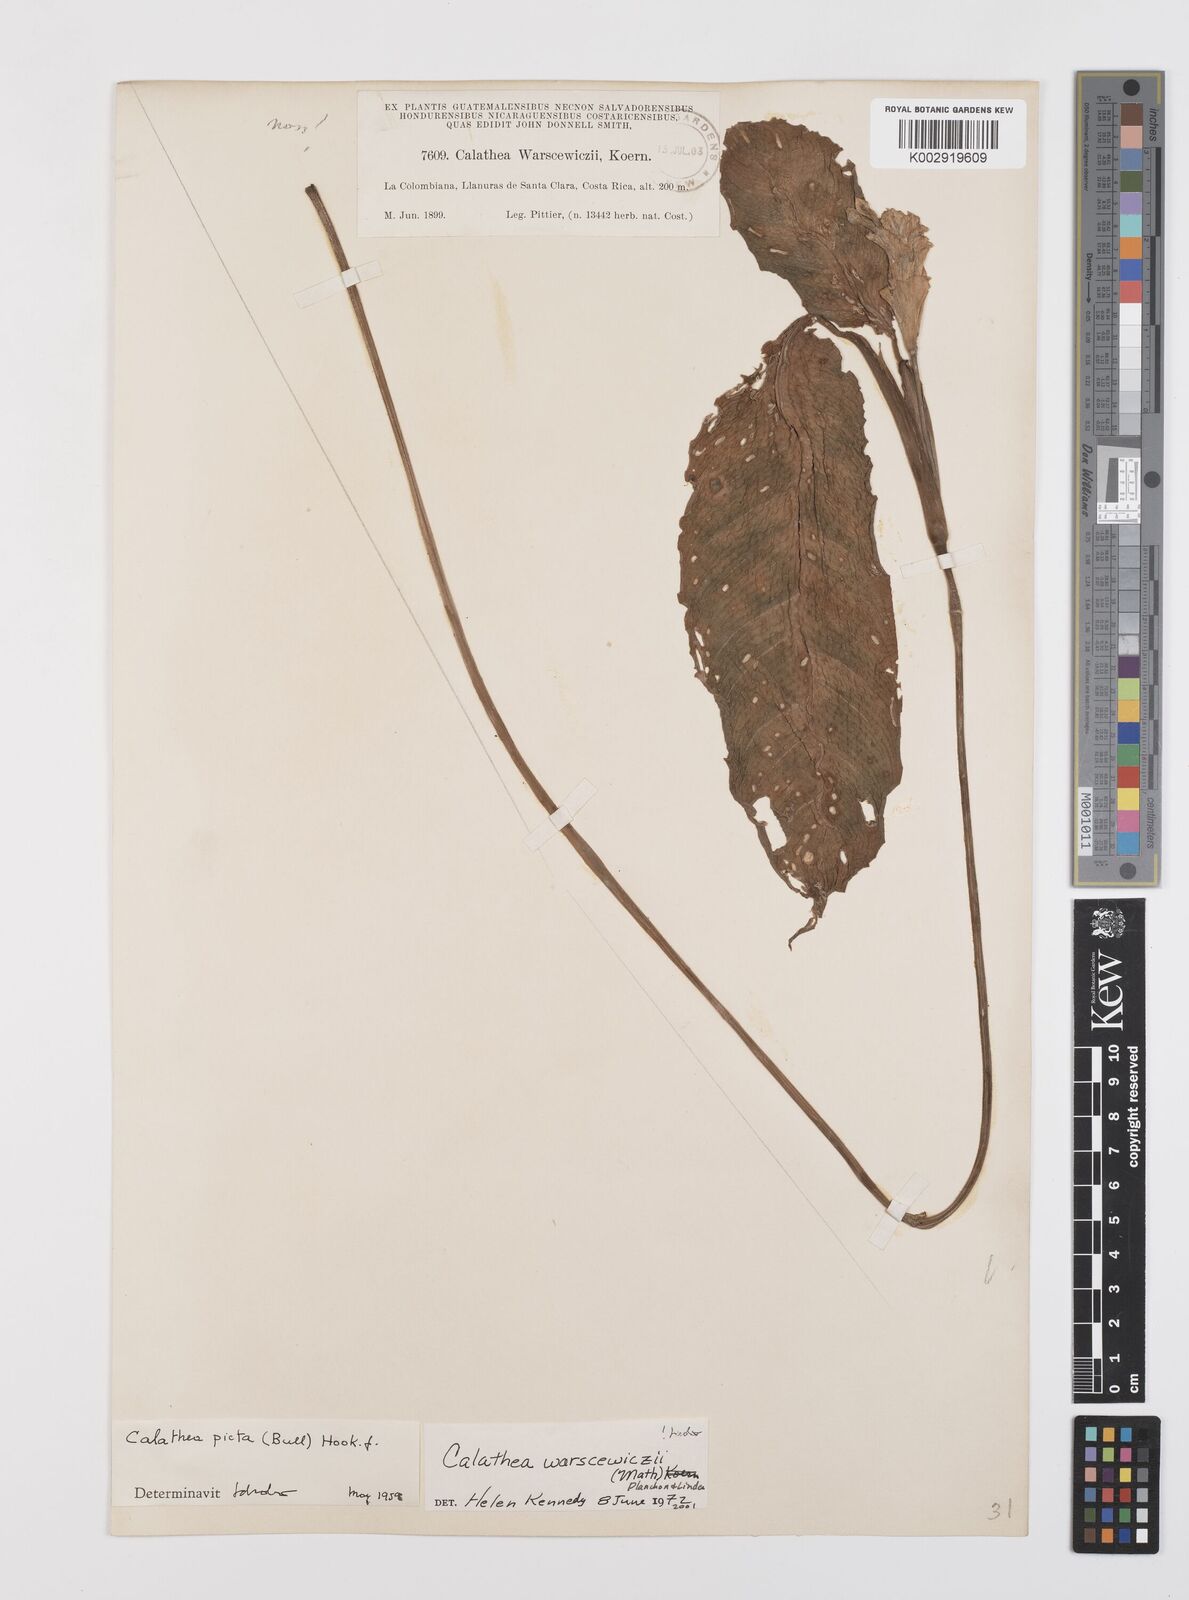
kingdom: Plantae
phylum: Tracheophyta
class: Liliopsida
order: Zingiberales
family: Marantaceae
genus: Goeppertia
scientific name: Goeppertia warszewiczii
